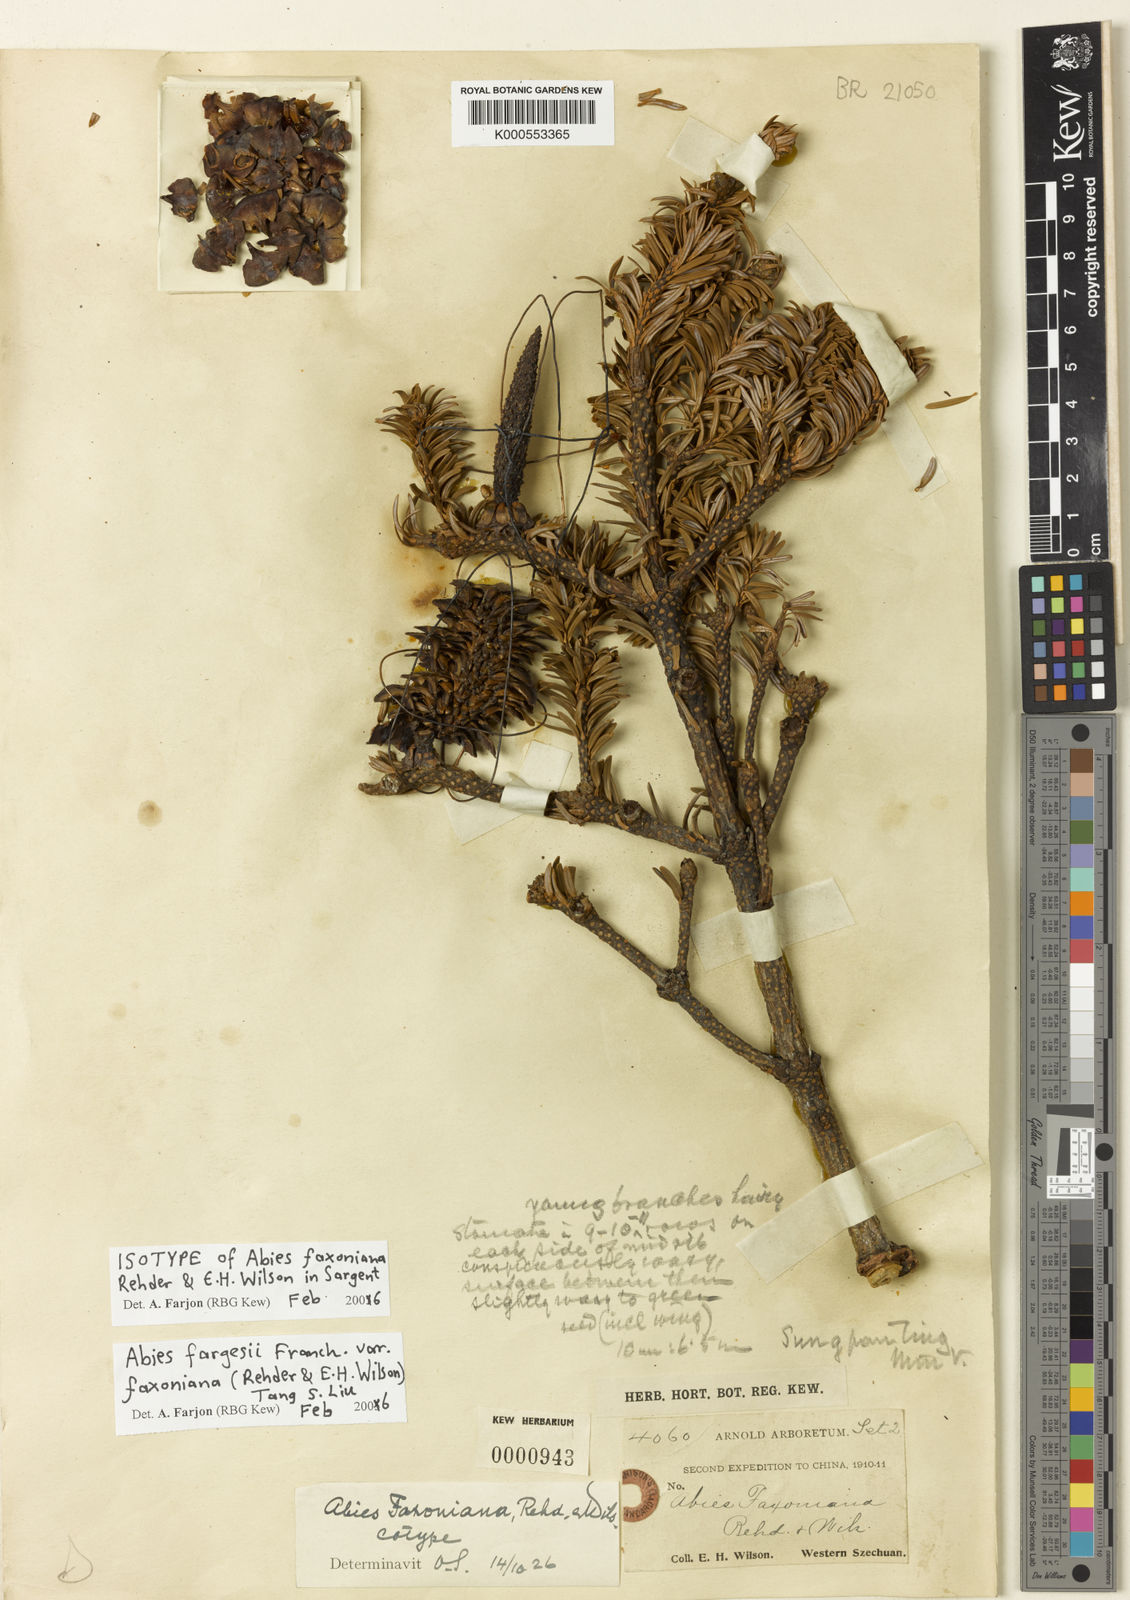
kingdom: Plantae
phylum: Tracheophyta
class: Pinopsida
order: Pinales
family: Pinaceae
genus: Abies
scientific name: Abies fargesii
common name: Farges' fir
